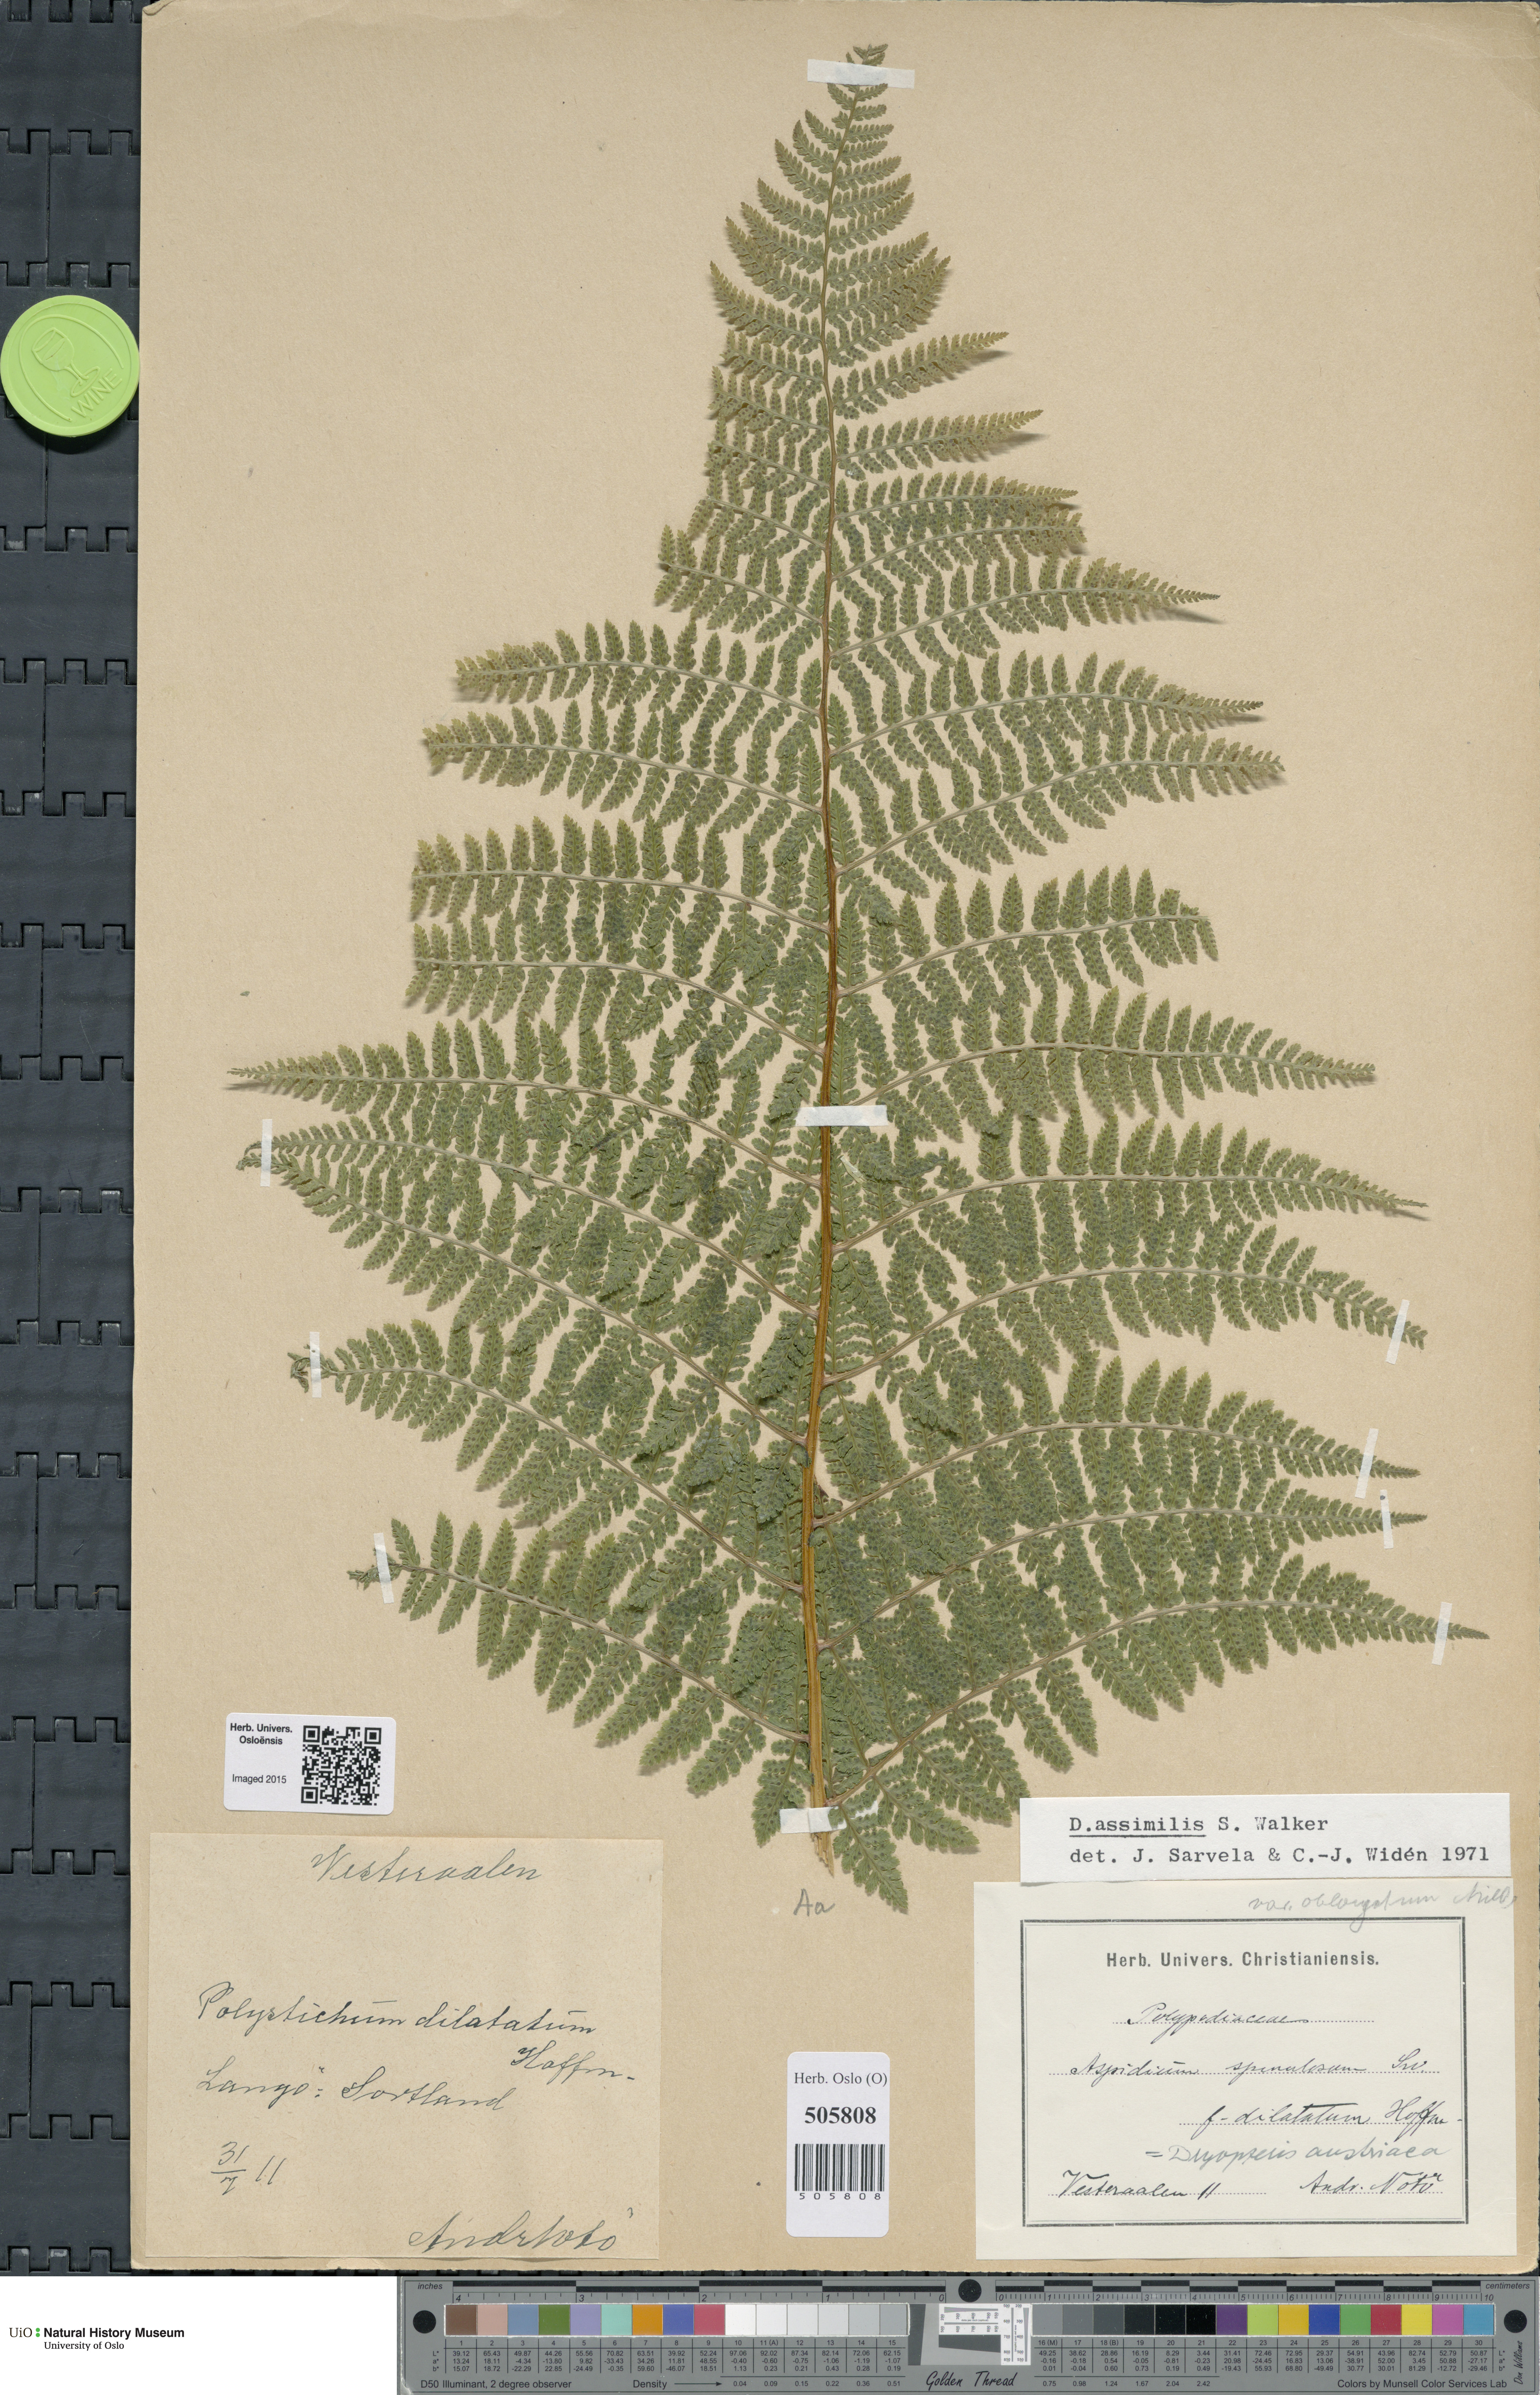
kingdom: Plantae
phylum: Tracheophyta
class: Polypodiopsida
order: Polypodiales
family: Dryopteridaceae
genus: Dryopteris
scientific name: Dryopteris expansa
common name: Northern buckler fern
